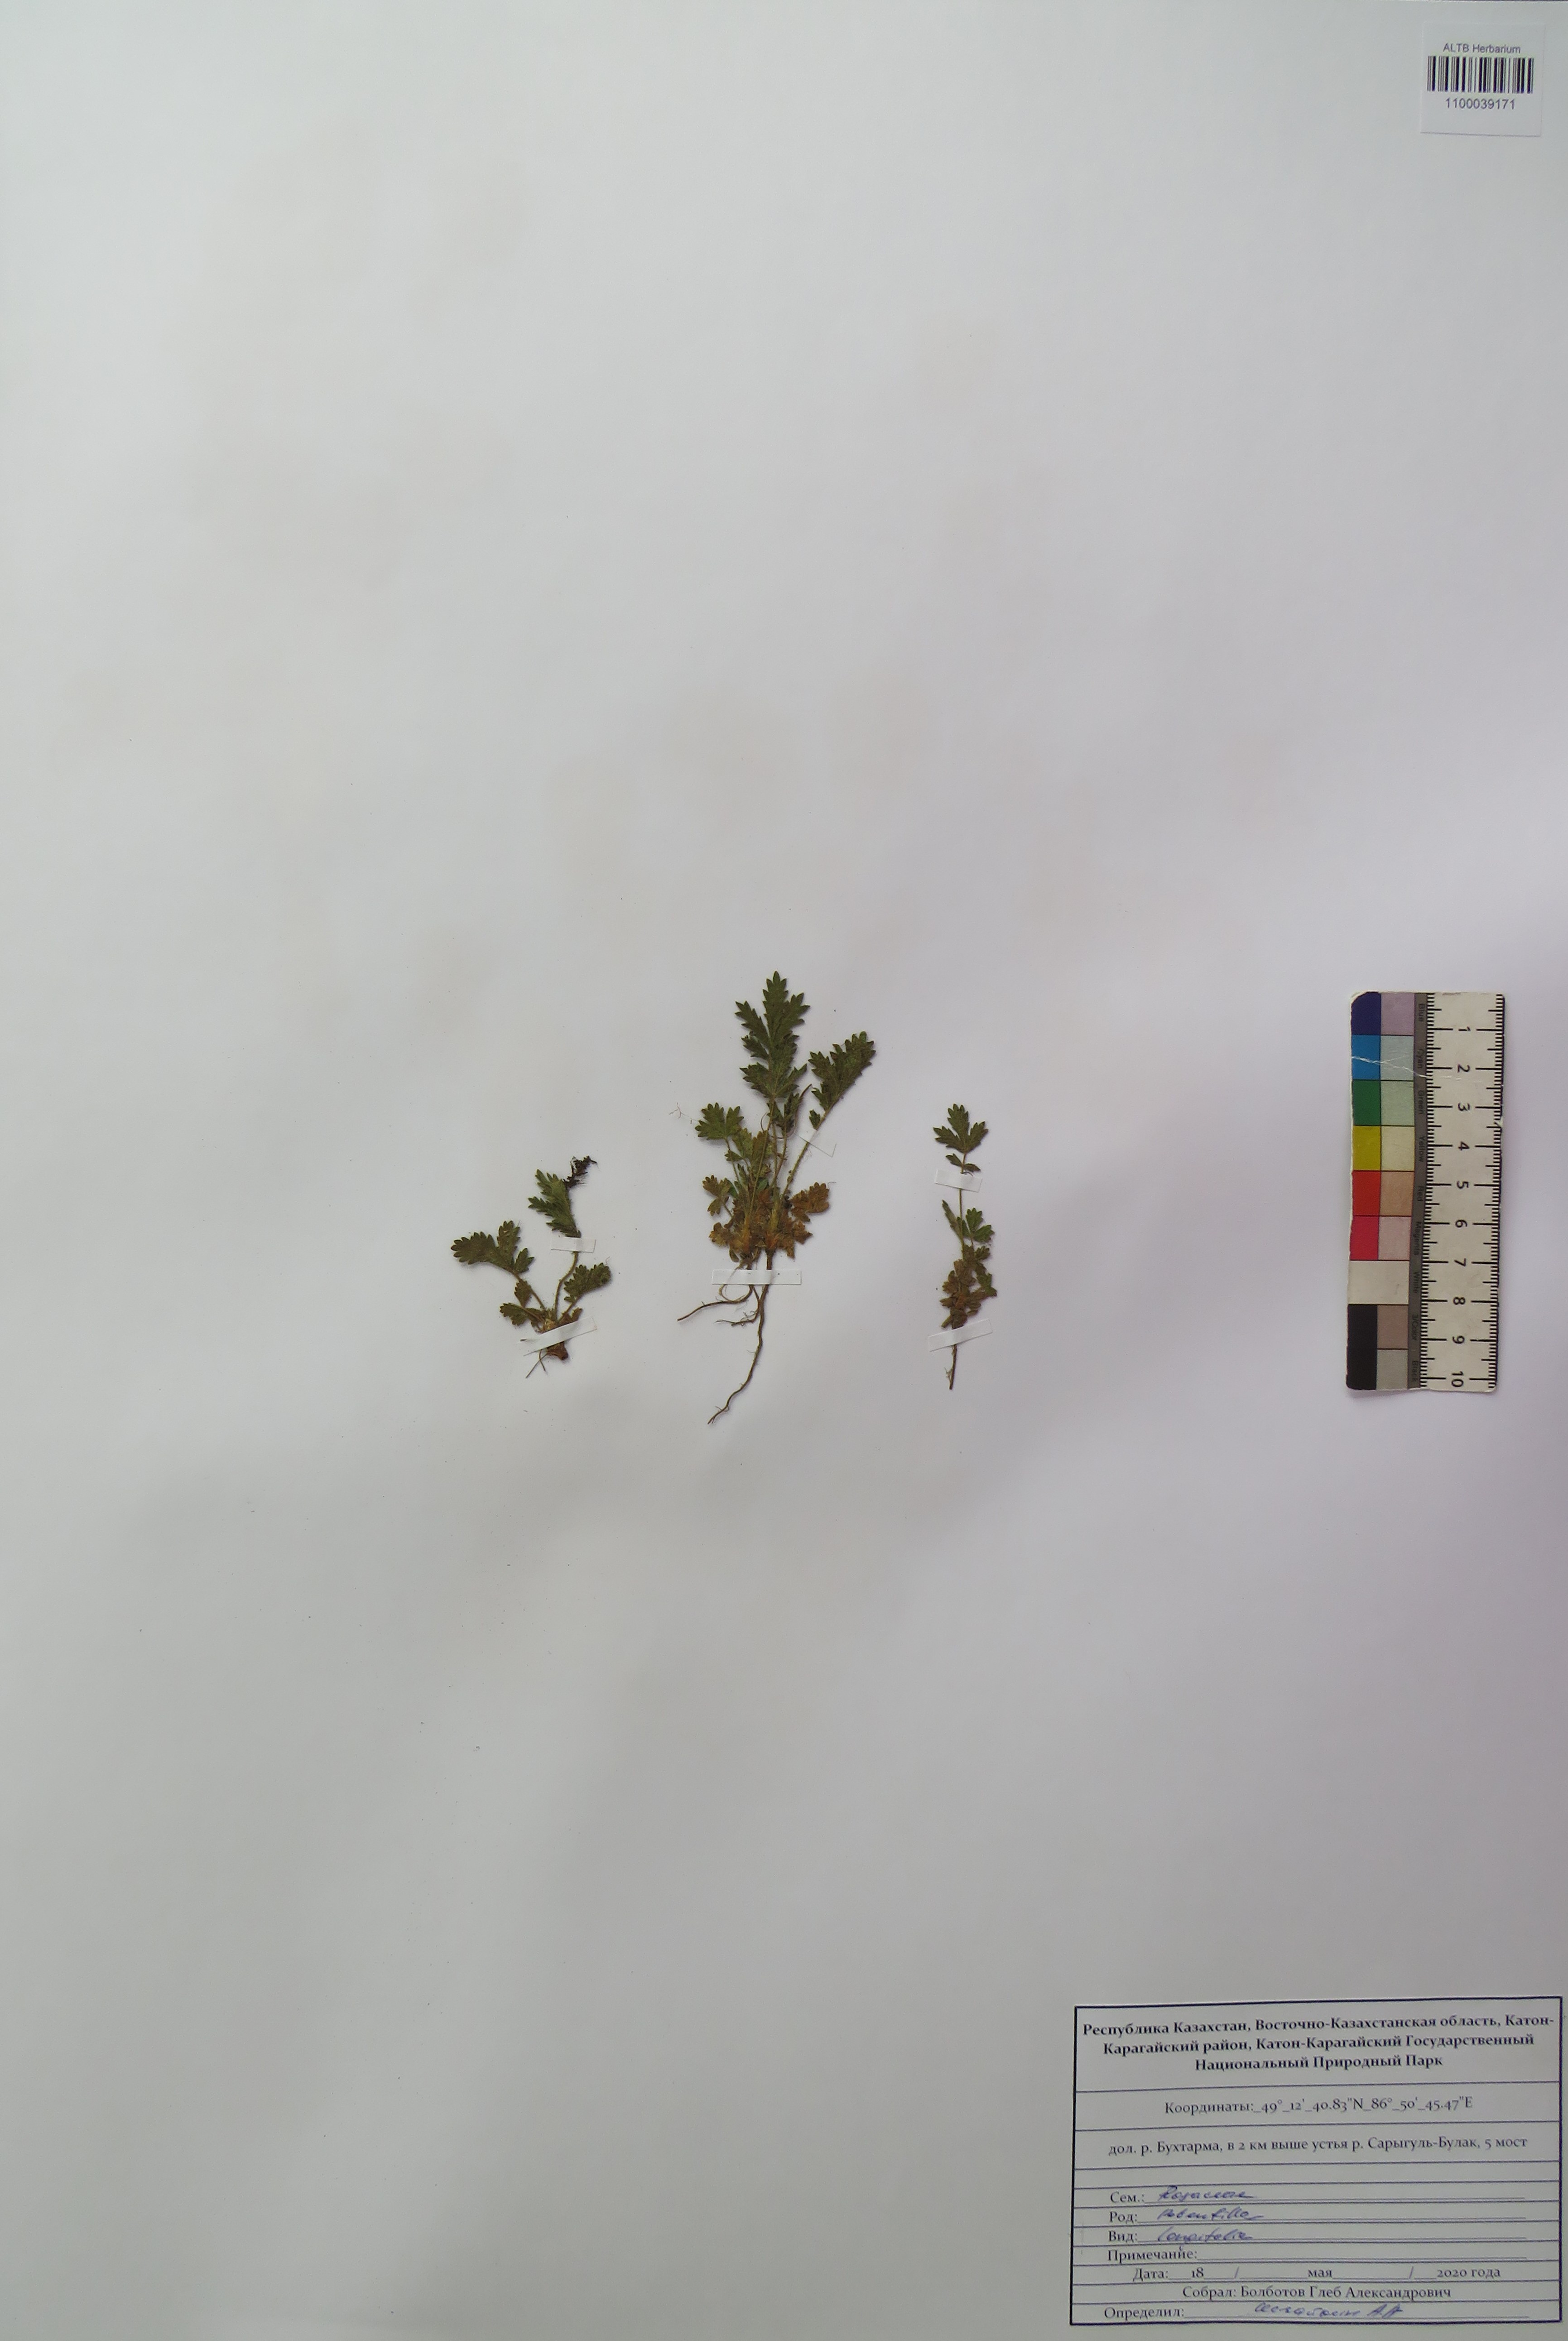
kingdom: Plantae
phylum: Tracheophyta
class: Magnoliopsida
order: Rosales
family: Rosaceae
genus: Potentilla
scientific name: Potentilla longifolia
